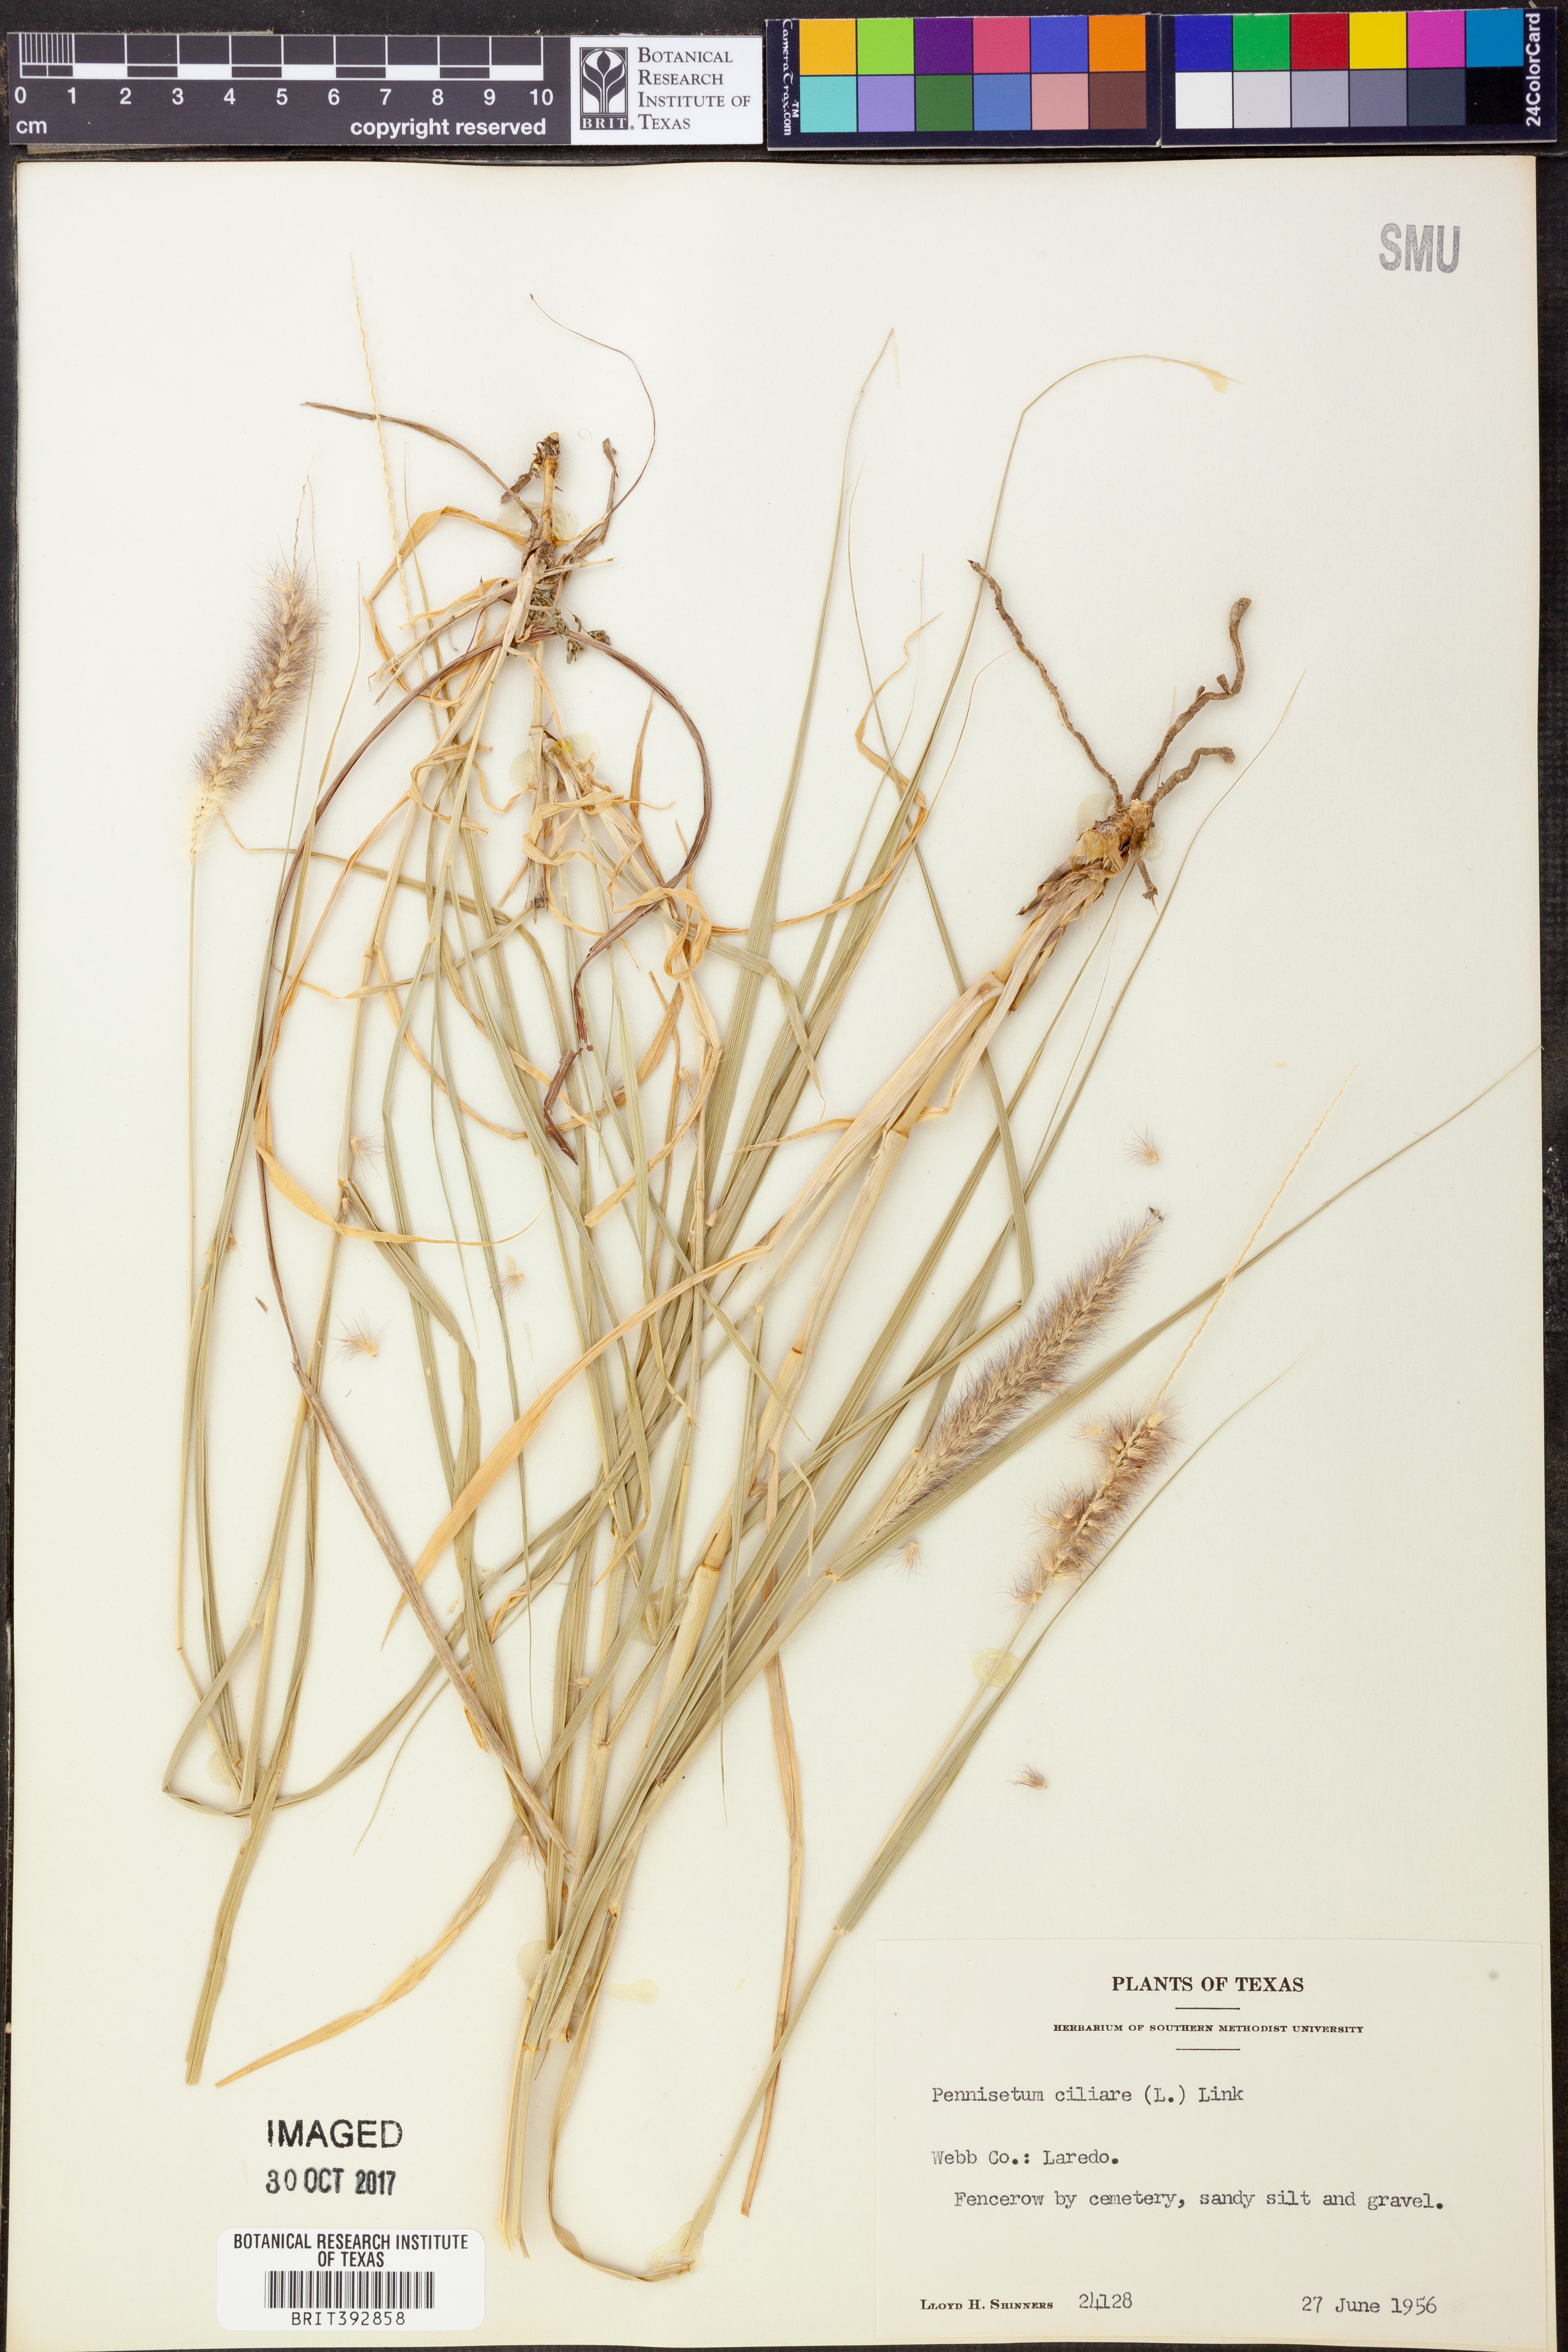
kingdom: Plantae
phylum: Tracheophyta
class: Liliopsida
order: Poales
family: Poaceae
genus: Cenchrus
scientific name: Cenchrus ciliaris
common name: Buffelgrass
